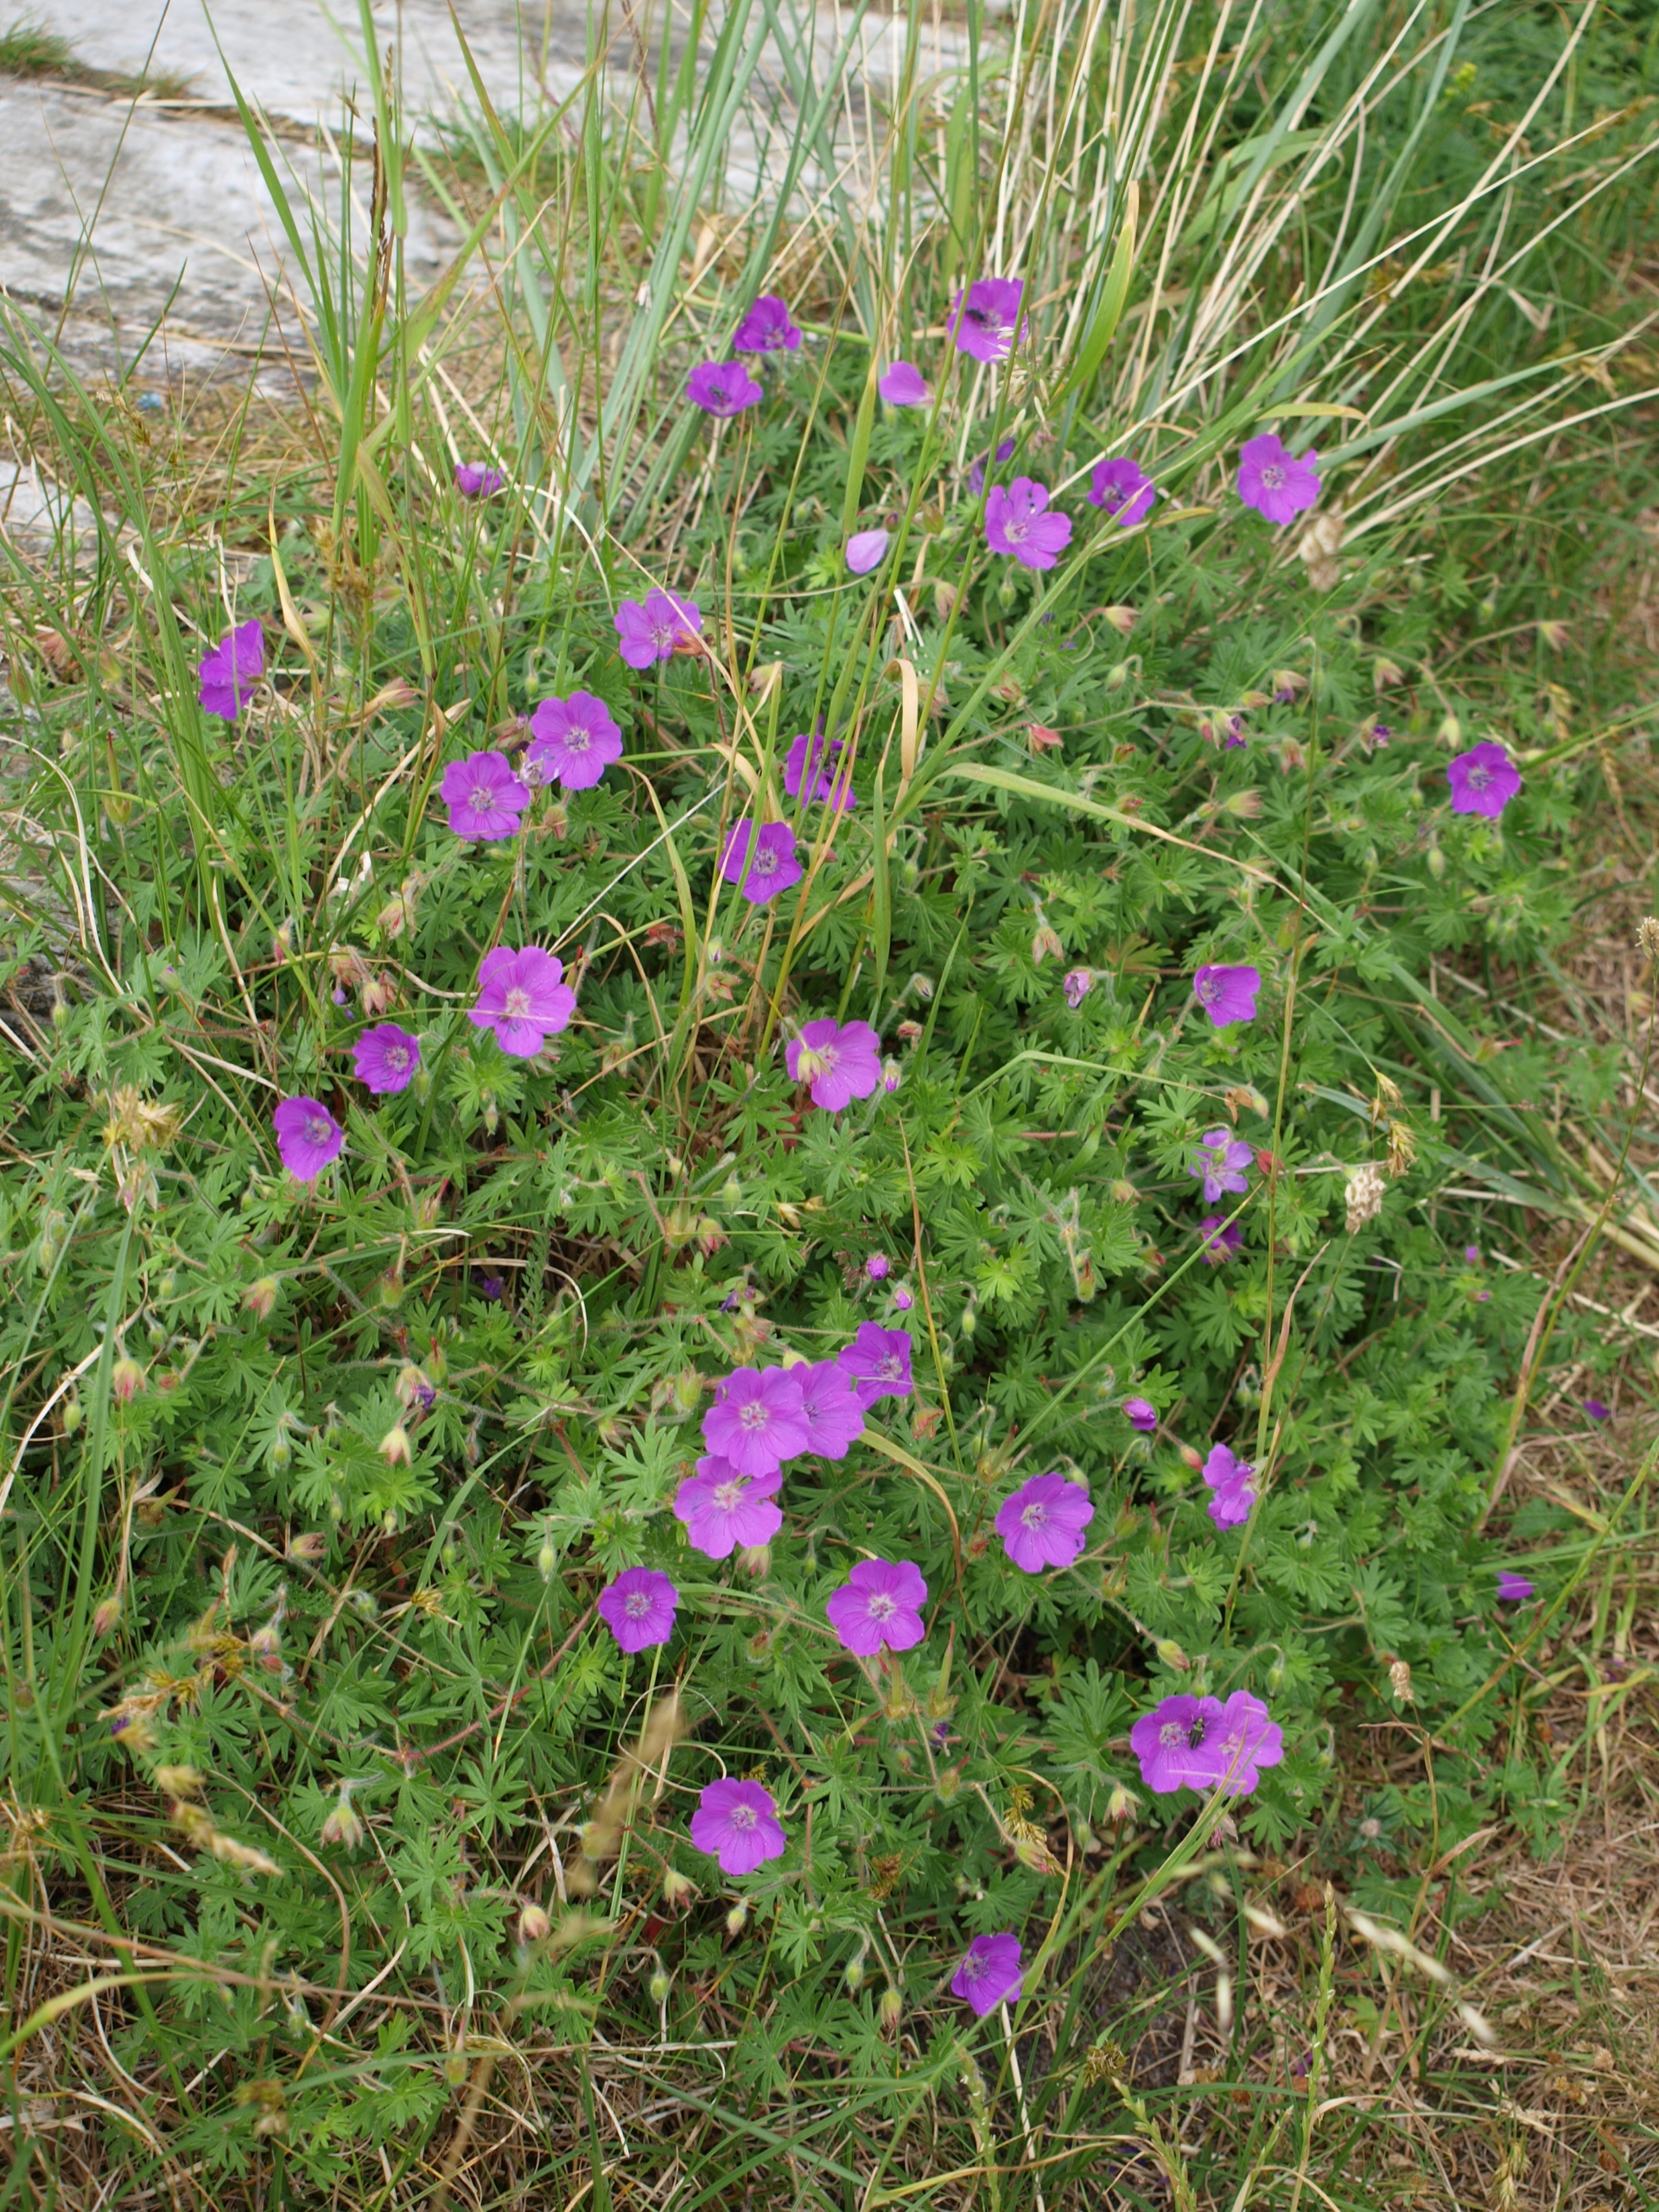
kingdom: Plantae
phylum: Tracheophyta
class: Magnoliopsida
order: Geraniales
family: Geraniaceae
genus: Geranium
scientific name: Geranium sanguineum
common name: Blodrød storkenæb
